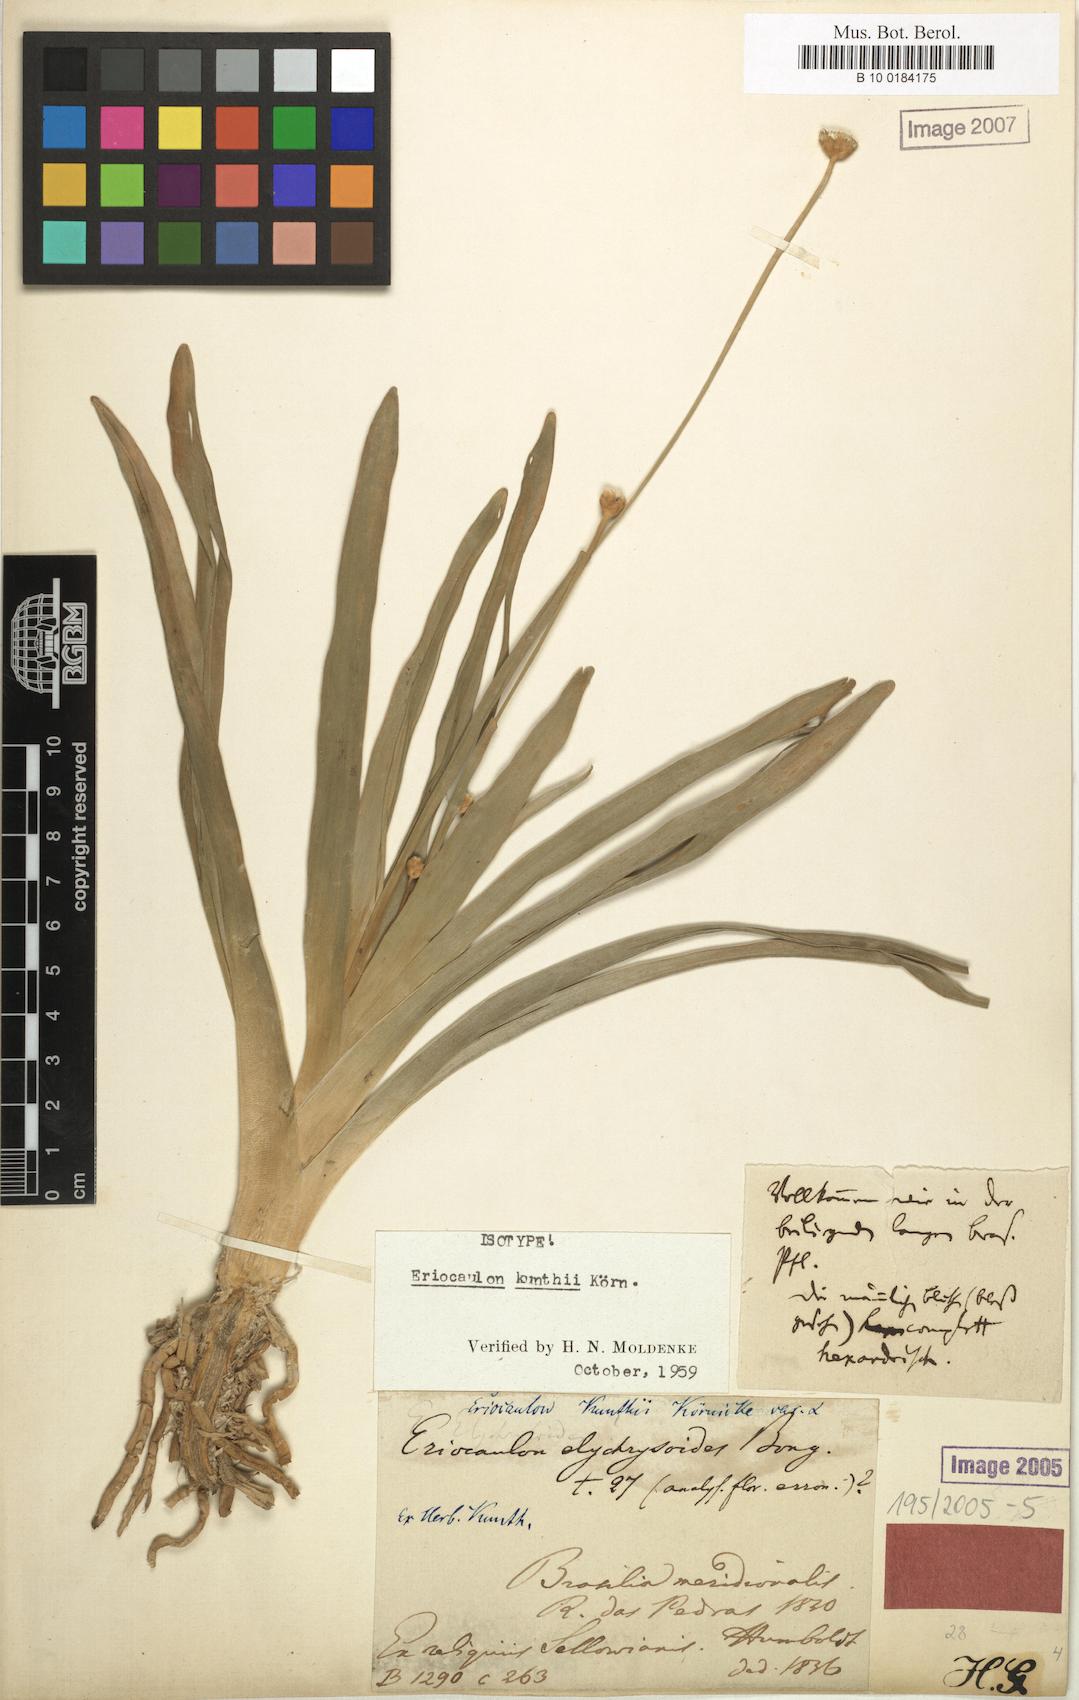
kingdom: Plantae
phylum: Tracheophyta
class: Liliopsida
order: Poales
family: Eriocaulaceae
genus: Eriocaulon
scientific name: Eriocaulon ligulatum
